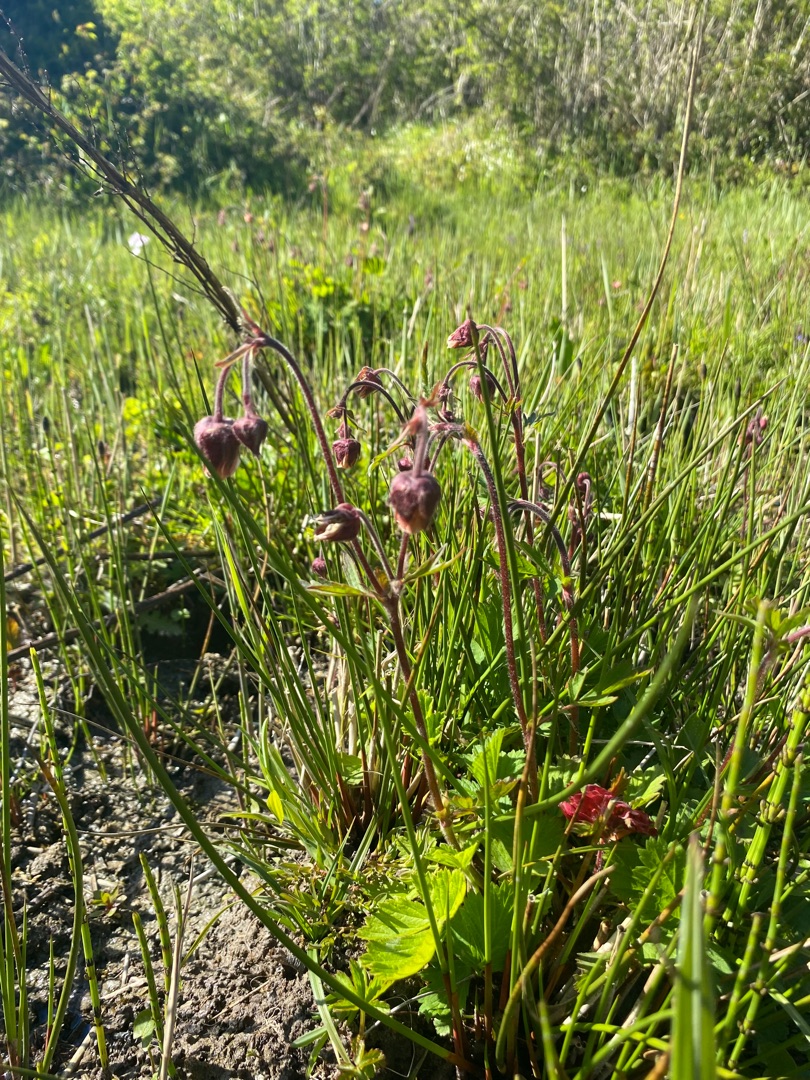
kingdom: Plantae
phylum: Tracheophyta
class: Magnoliopsida
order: Rosales
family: Rosaceae
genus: Geum
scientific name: Geum rivale
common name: Eng-nellikerod
